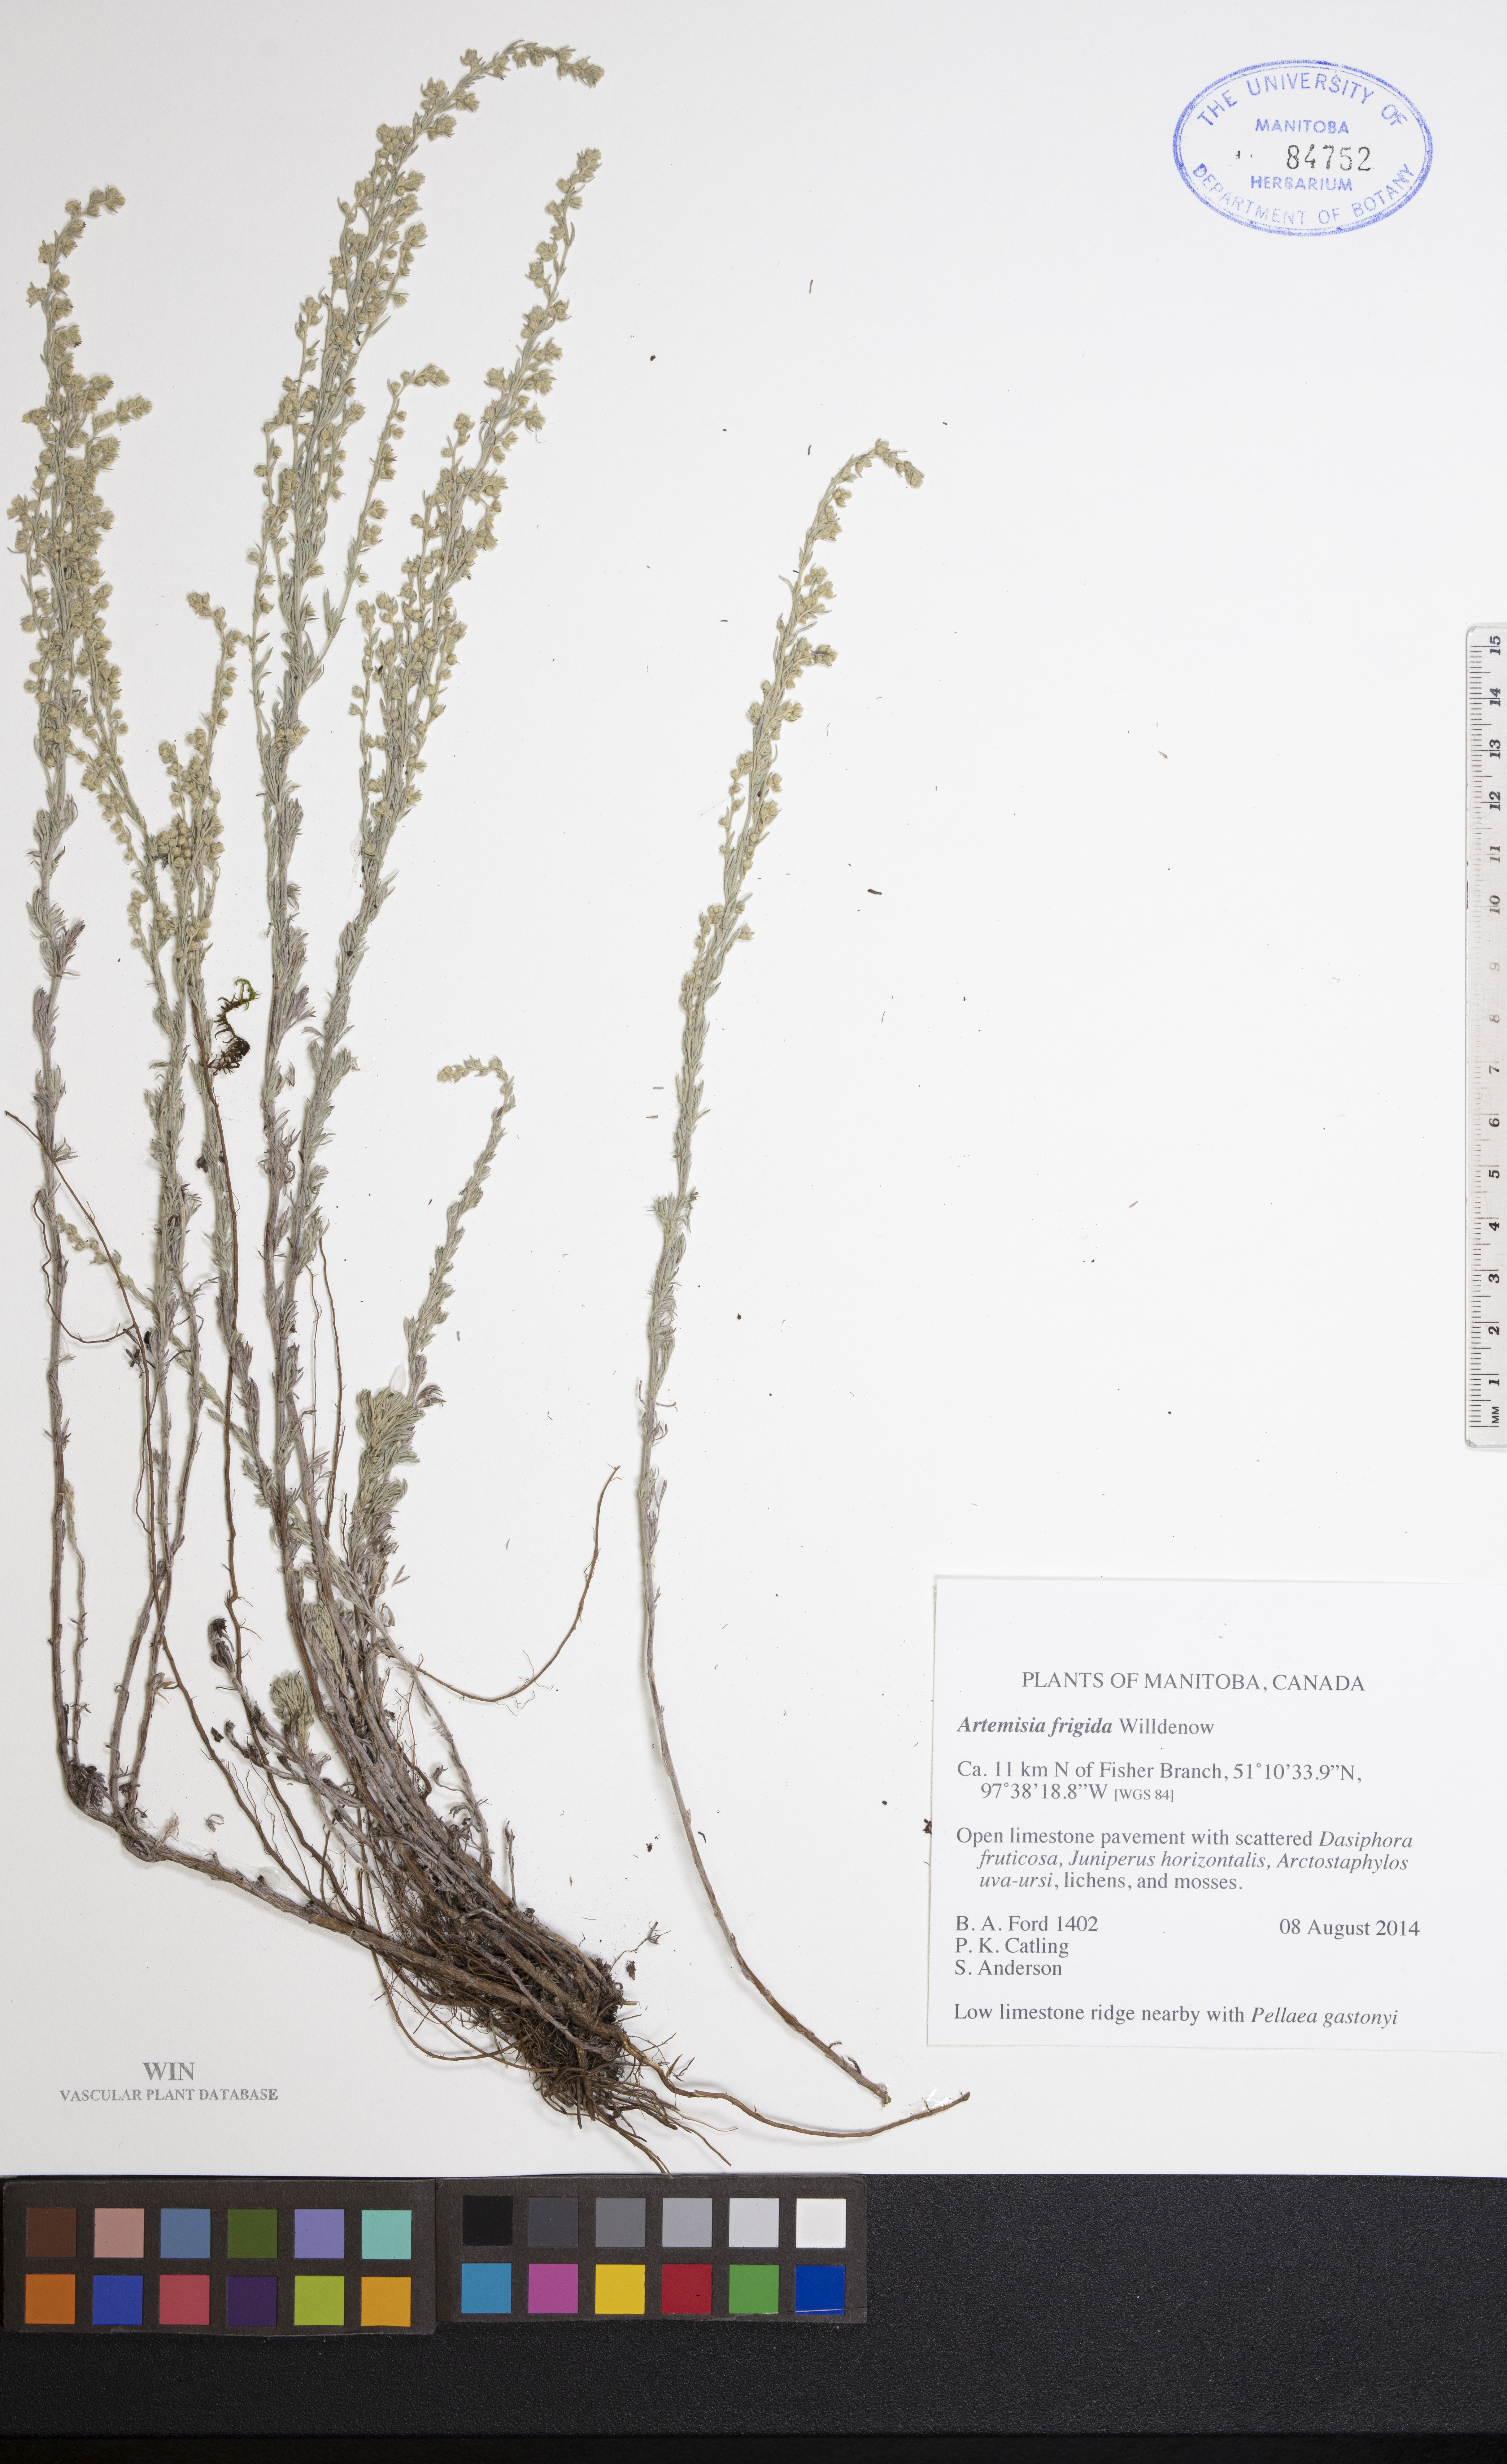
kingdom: Plantae
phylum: Tracheophyta
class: Magnoliopsida
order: Asterales
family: Asteraceae
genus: Artemisia
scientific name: Artemisia frigida
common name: Prairie sagewort
